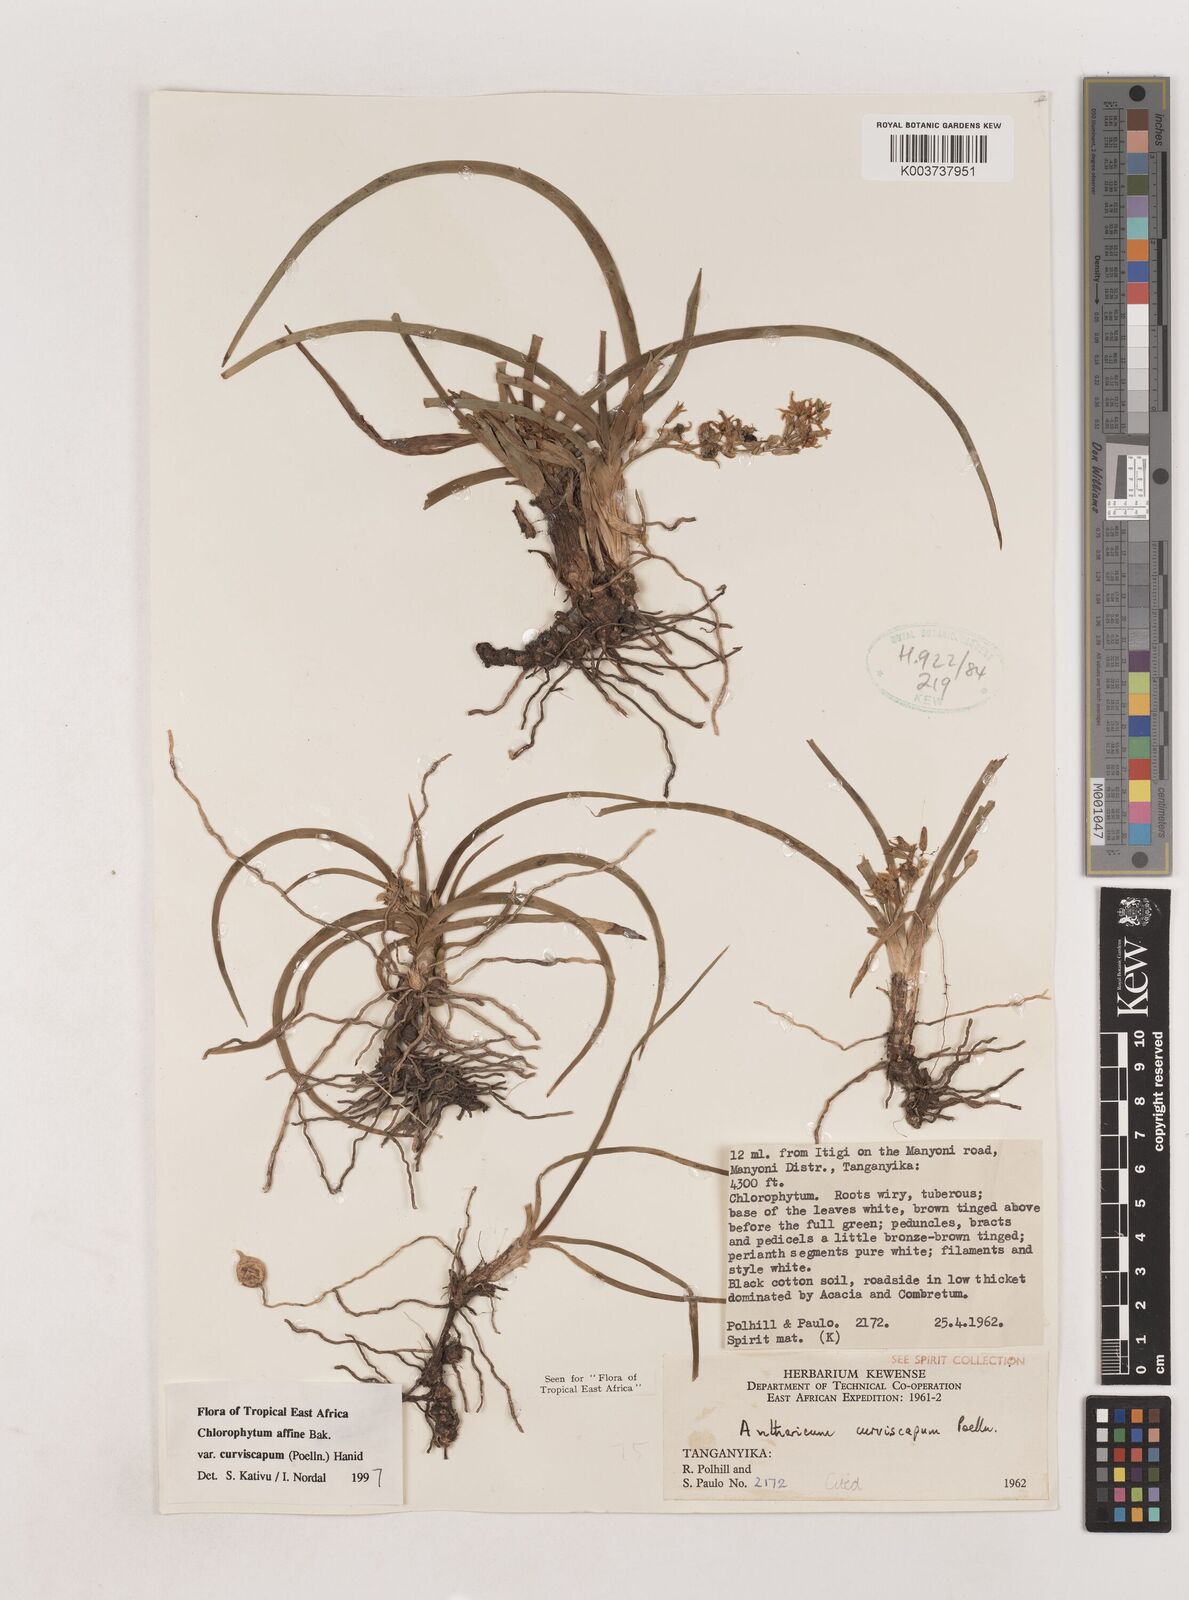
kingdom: Plantae
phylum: Tracheophyta
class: Liliopsida
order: Asparagales
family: Asparagaceae
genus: Chlorophytum
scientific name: Chlorophytum tordense
